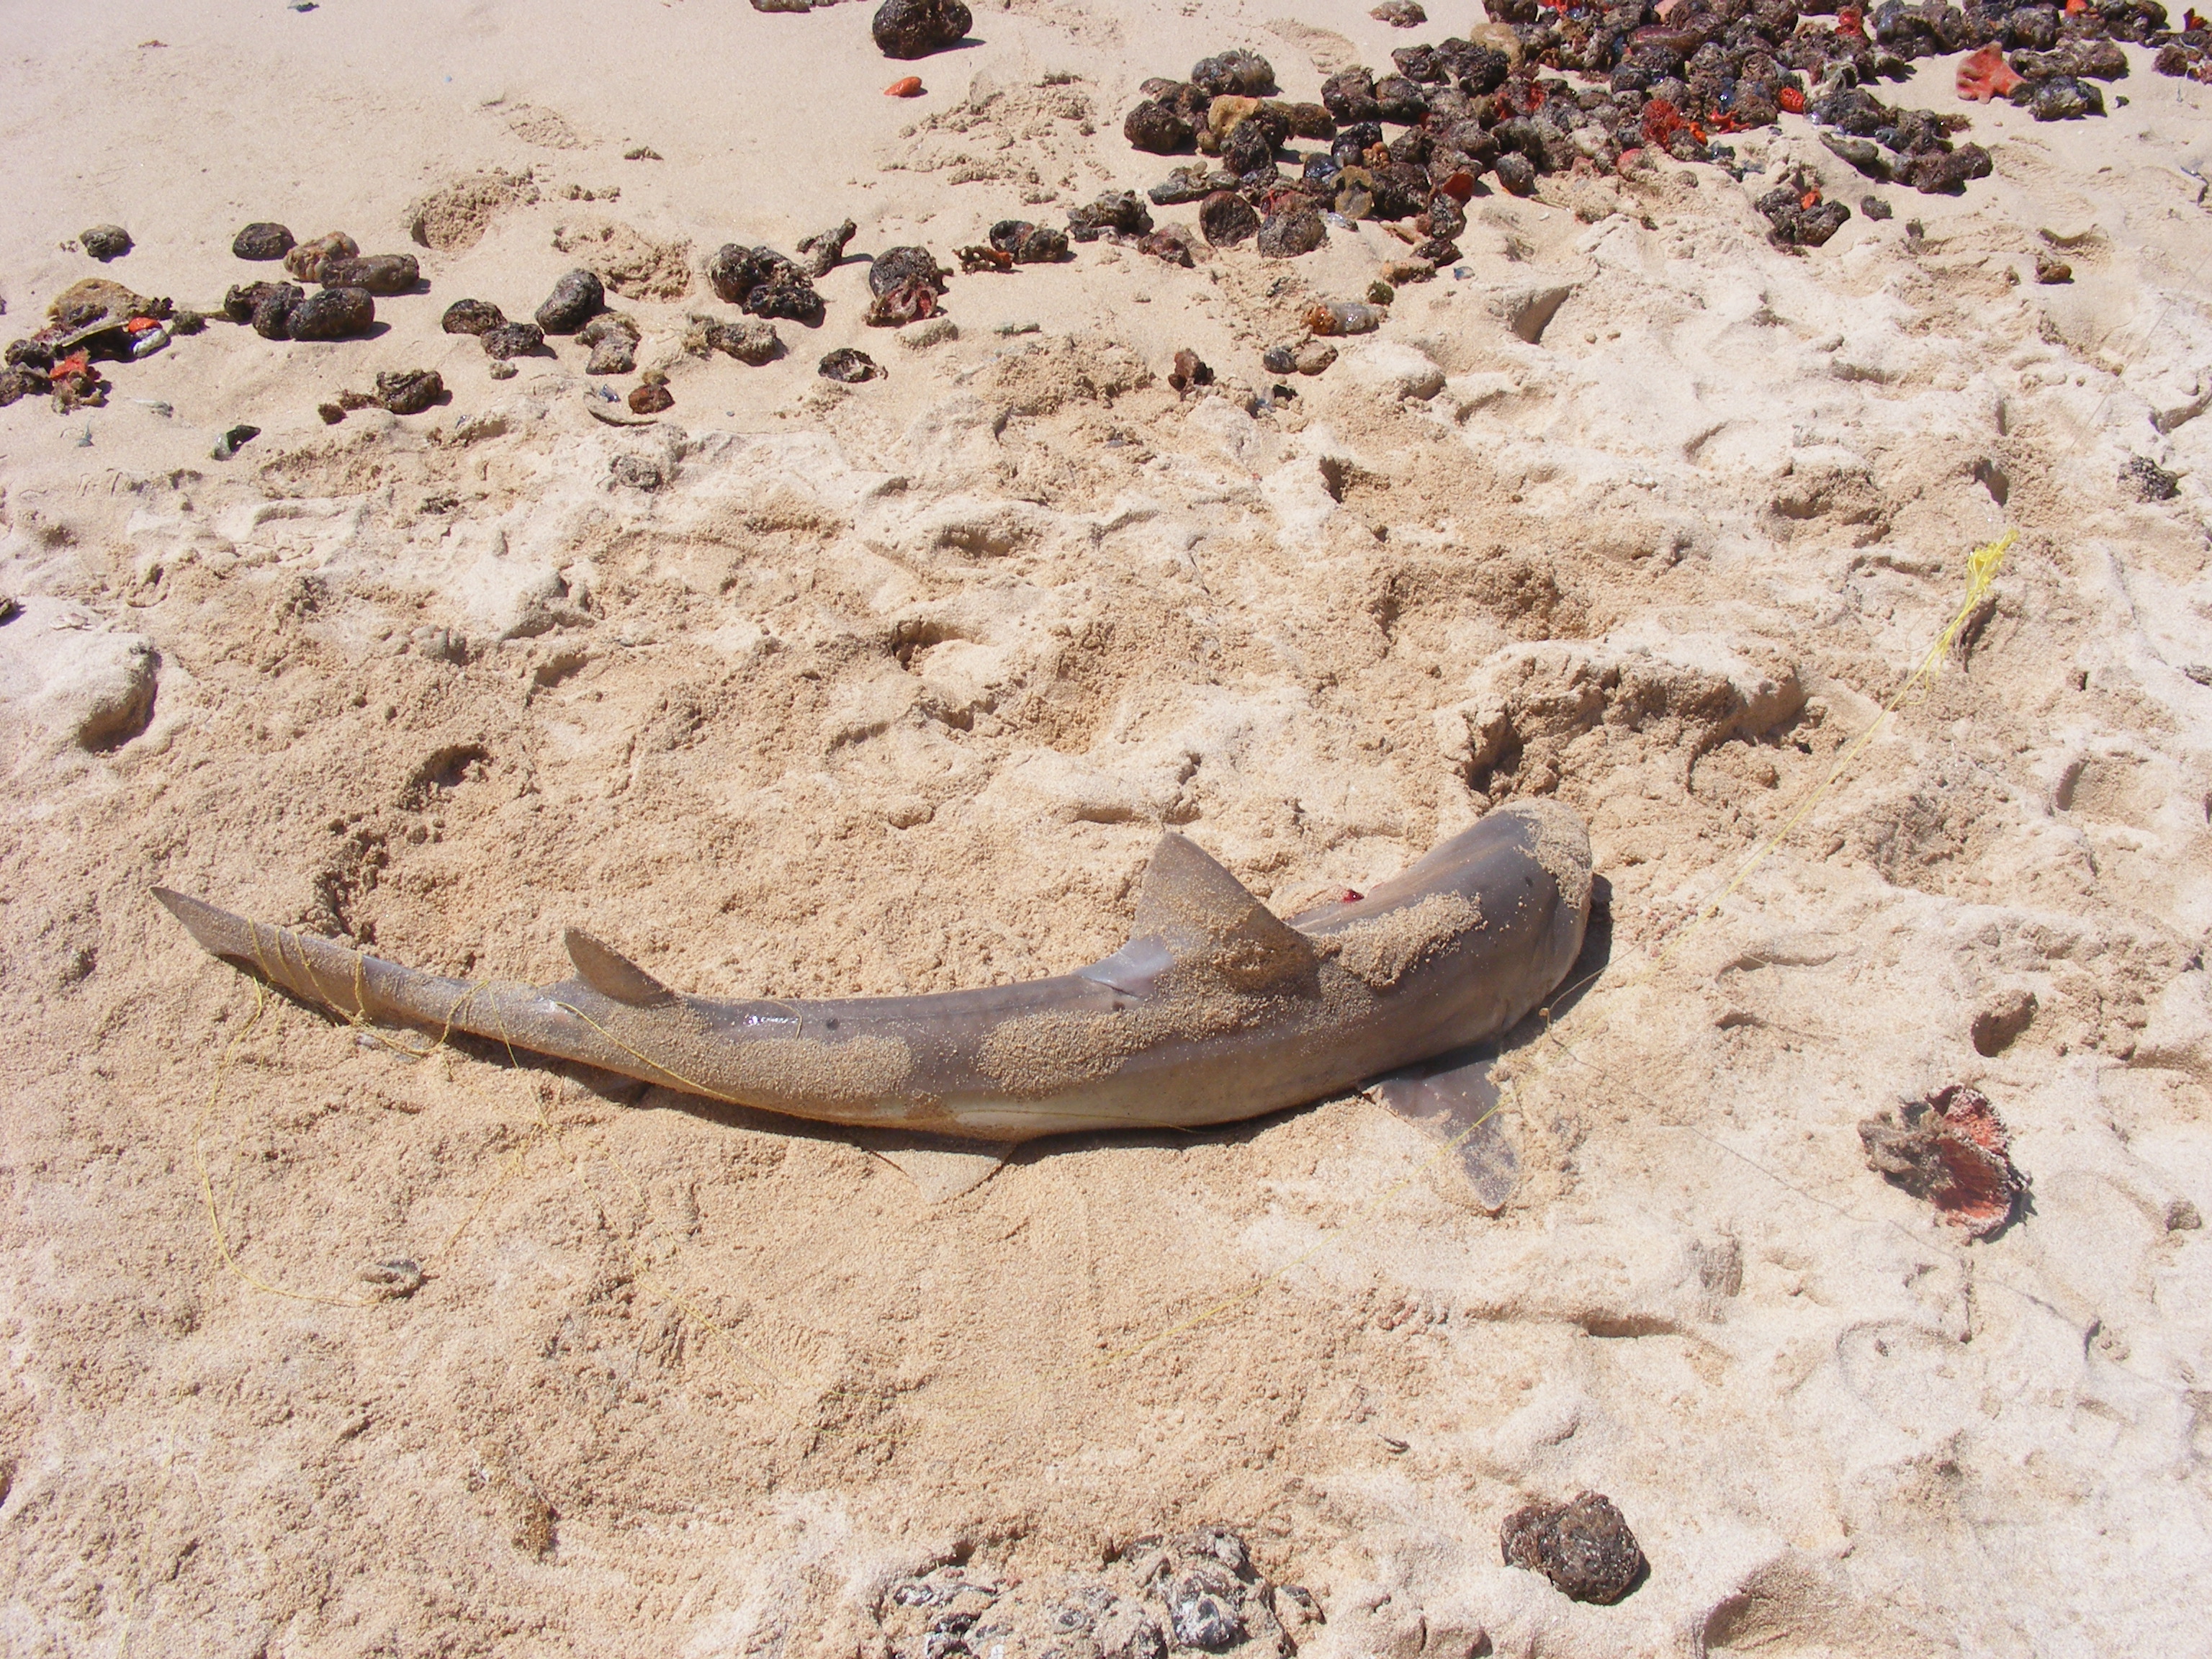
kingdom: Animalia
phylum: Chordata
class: Elasmobranchii
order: Carcharhiniformes
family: Triakidae
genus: Mustelus
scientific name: Mustelus mustelus
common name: Smooth-hound
